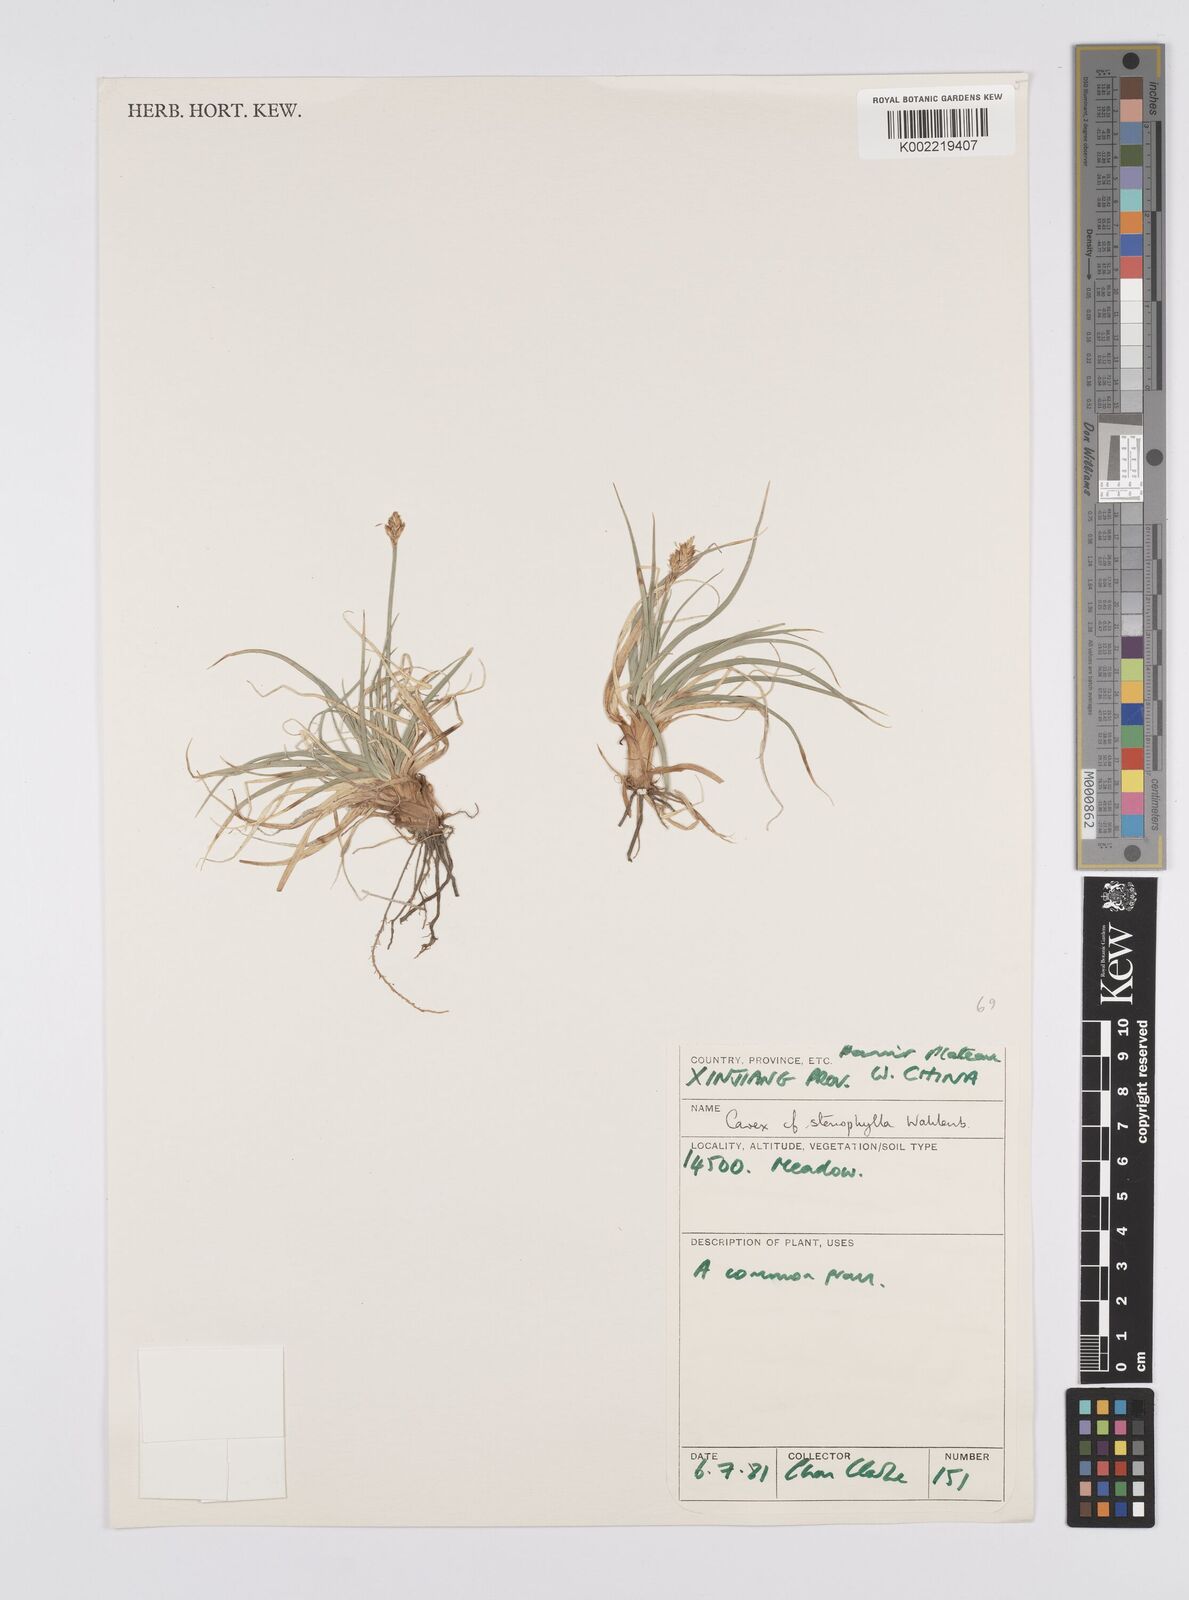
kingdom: Plantae
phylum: Tracheophyta
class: Liliopsida
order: Poales
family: Cyperaceae
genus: Carex
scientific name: Carex stenophylla
